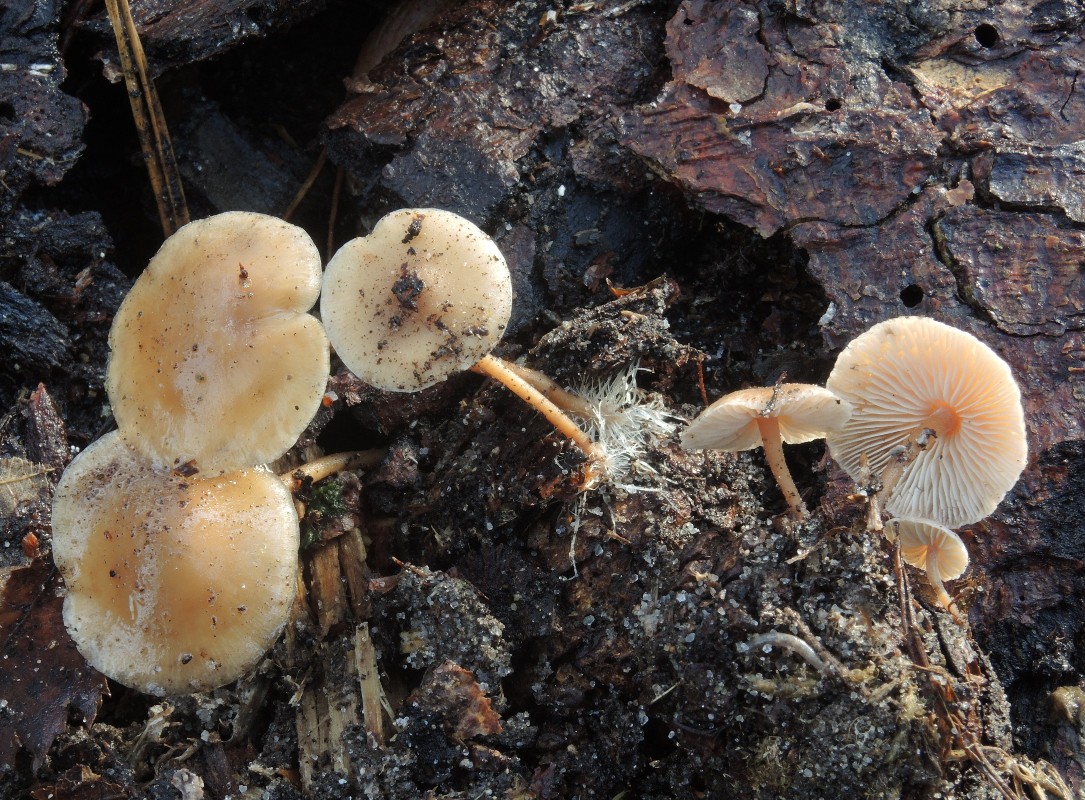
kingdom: Fungi
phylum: Basidiomycota
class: Agaricomycetes
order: Agaricales
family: Marasmiaceae
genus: Baeospora
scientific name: Baeospora myosura
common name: koglebruskhat
